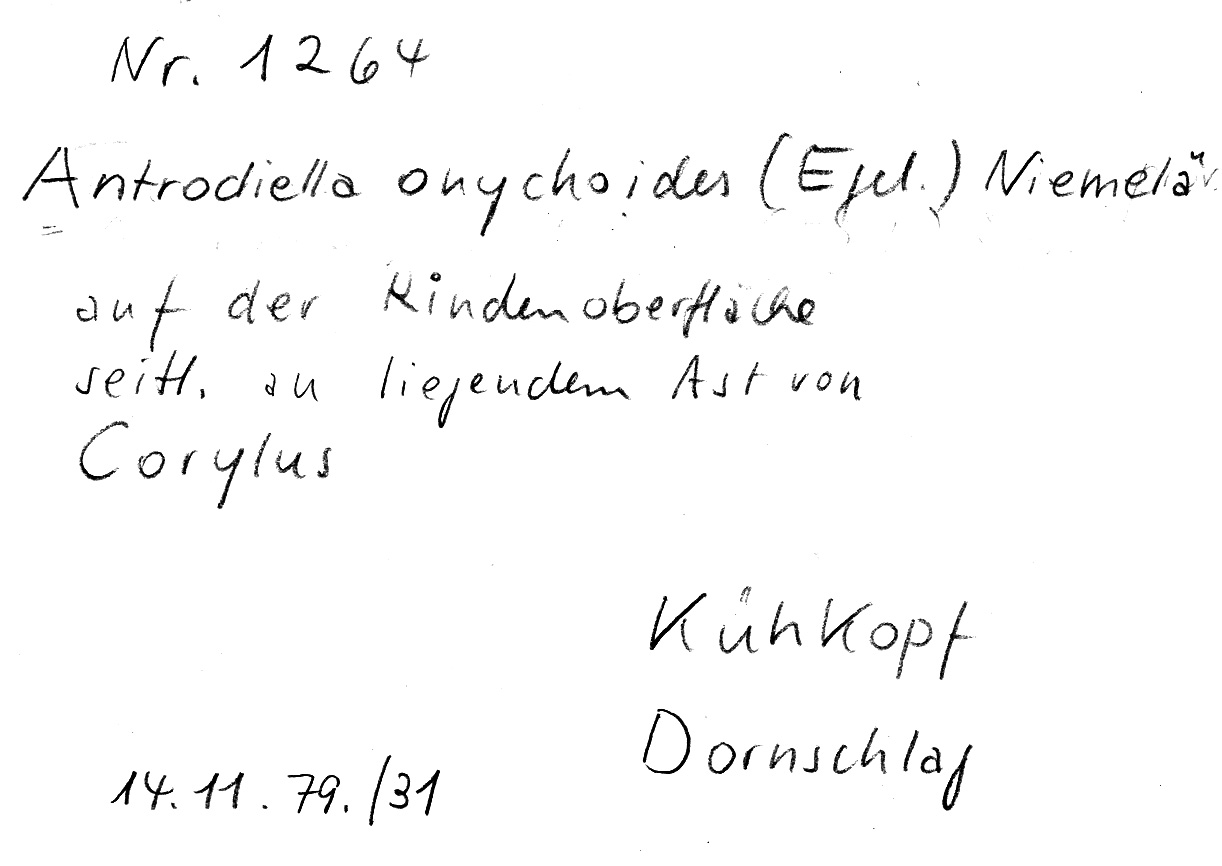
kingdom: Fungi
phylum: Basidiomycota
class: Agaricomycetes
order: Polyporales
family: Steccherinaceae
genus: Antrodiella
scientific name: Antrodiella onychoides
